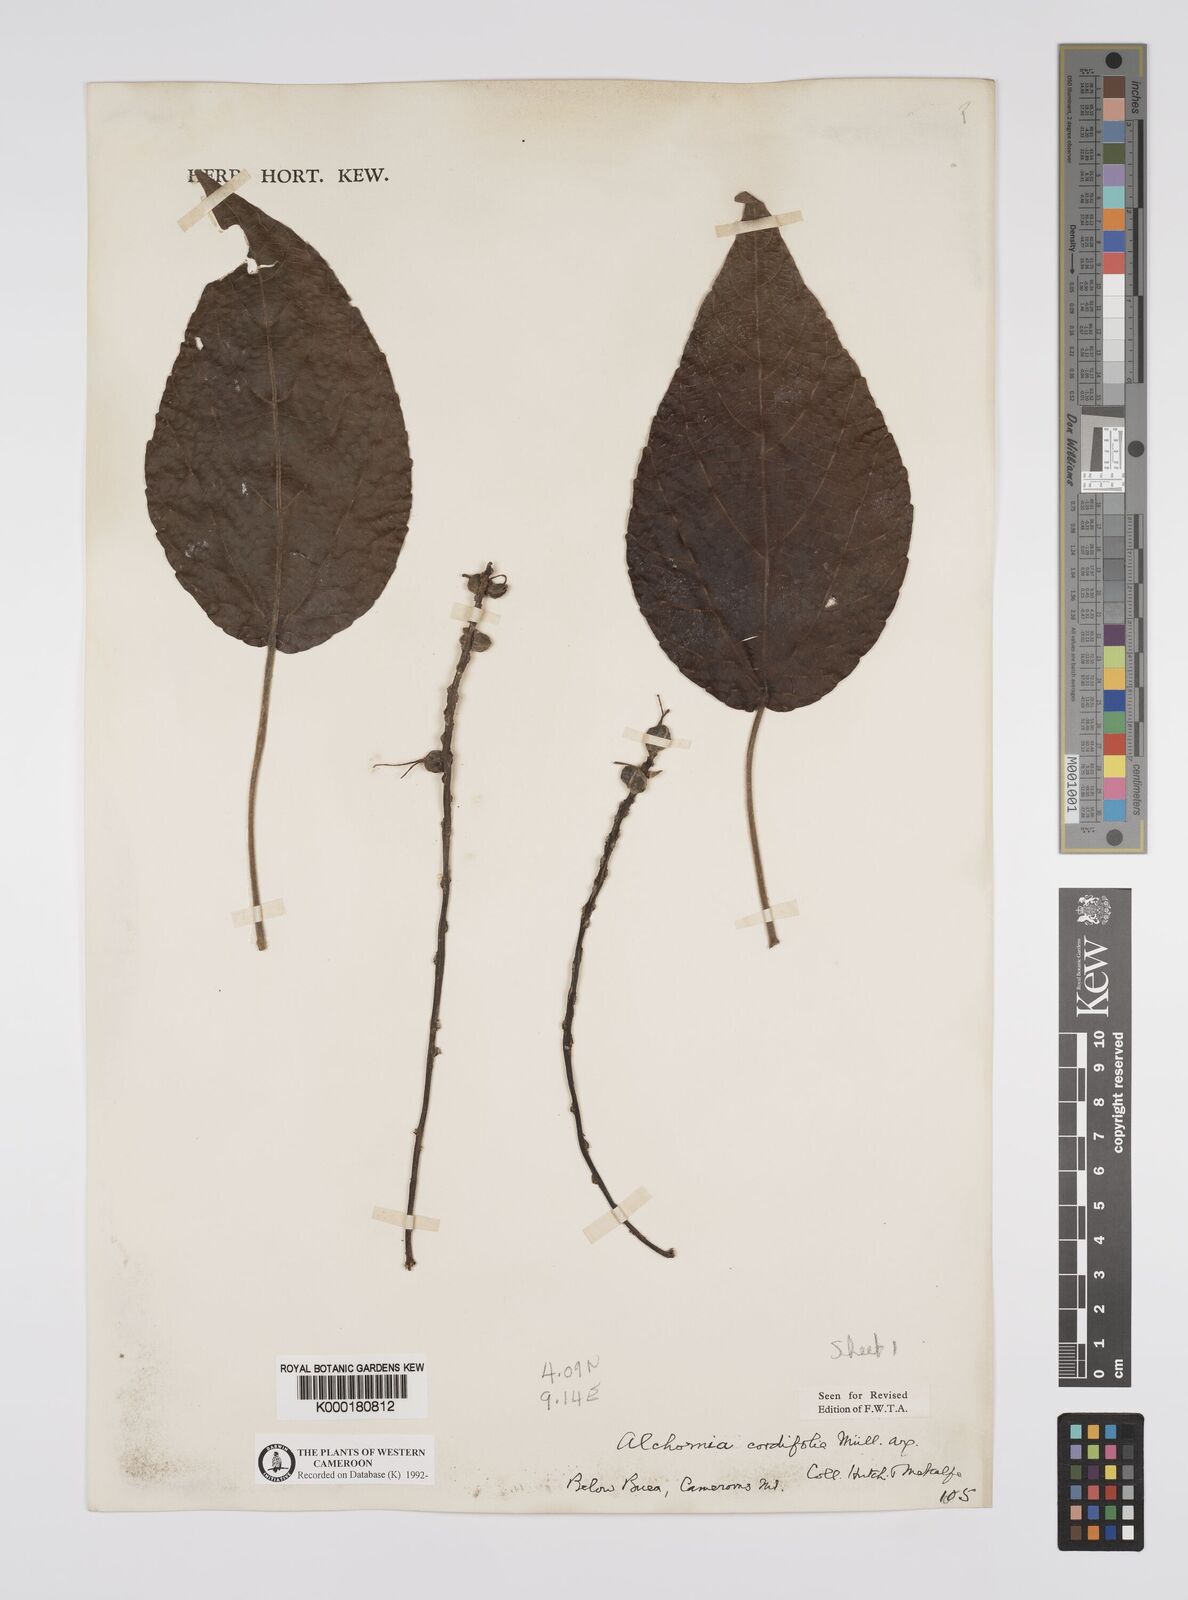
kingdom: Plantae
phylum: Tracheophyta
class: Magnoliopsida
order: Malpighiales
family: Euphorbiaceae
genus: Alchornea
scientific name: Alchornea
